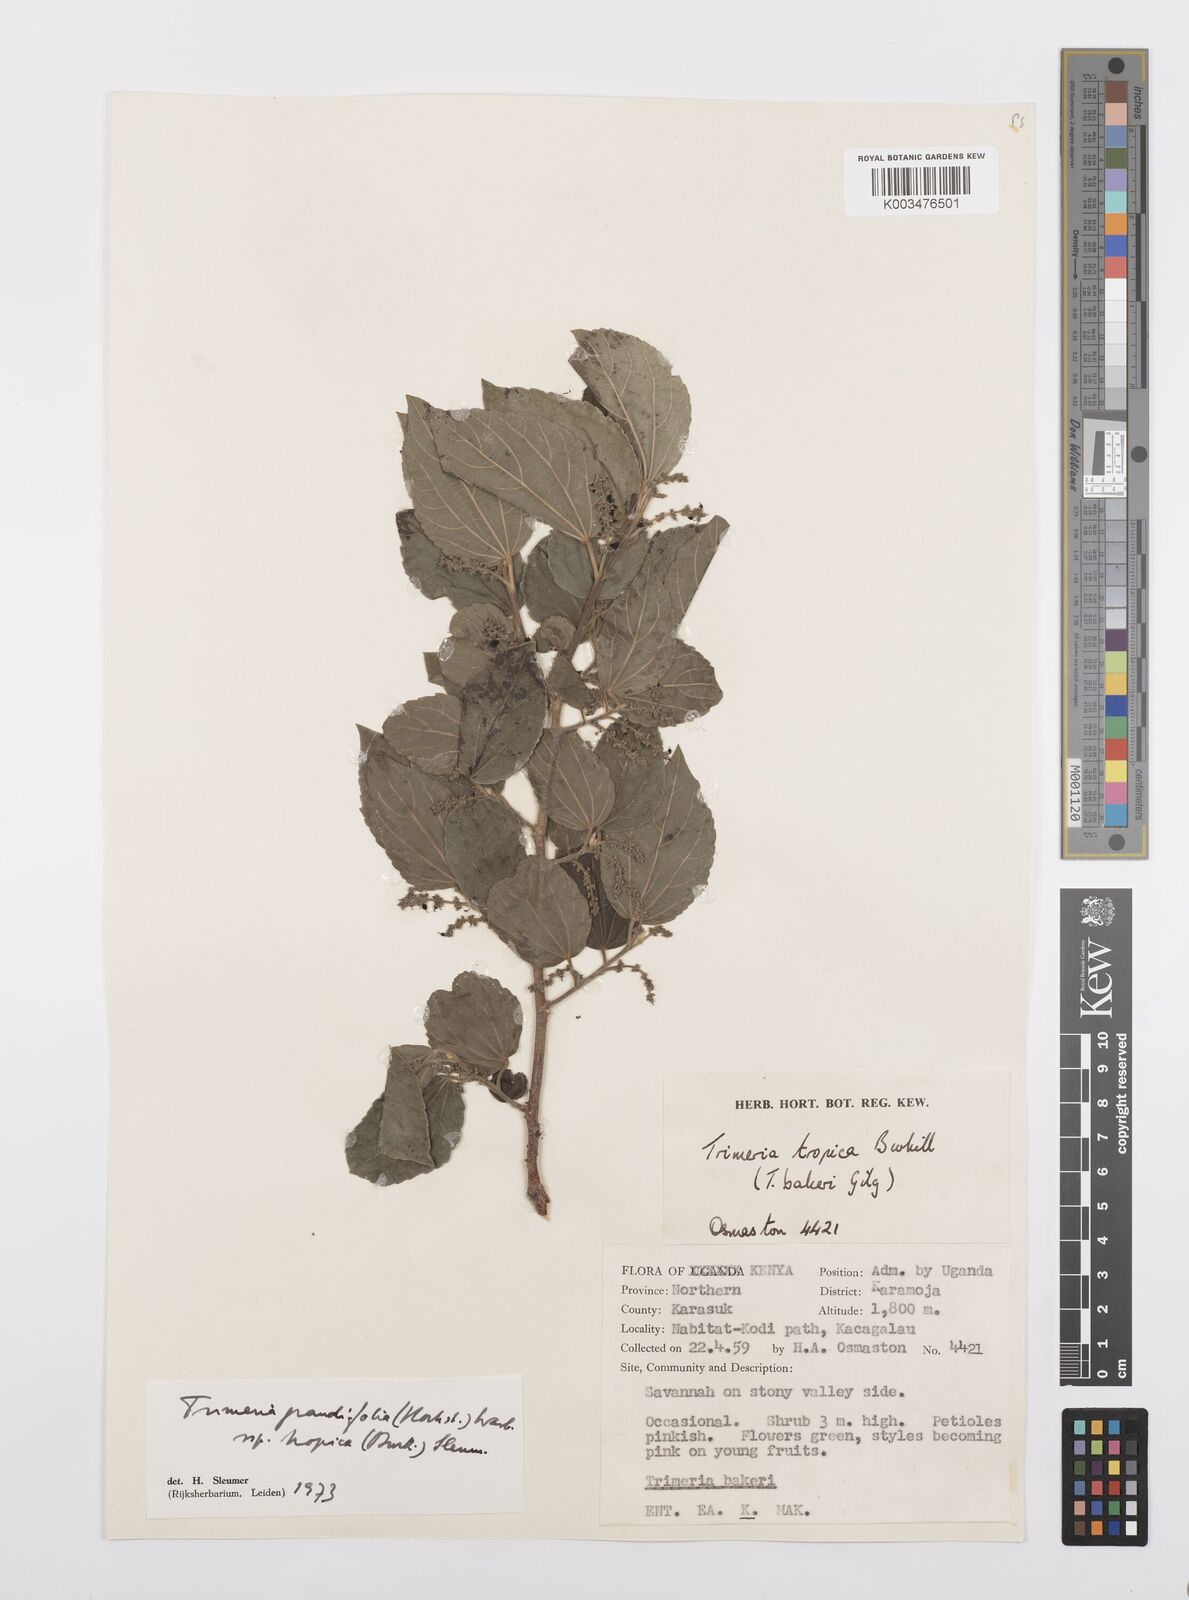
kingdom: Plantae
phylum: Tracheophyta
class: Magnoliopsida
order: Malpighiales
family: Salicaceae
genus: Trimeria
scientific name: Trimeria grandifolia
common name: Wild mulberry
